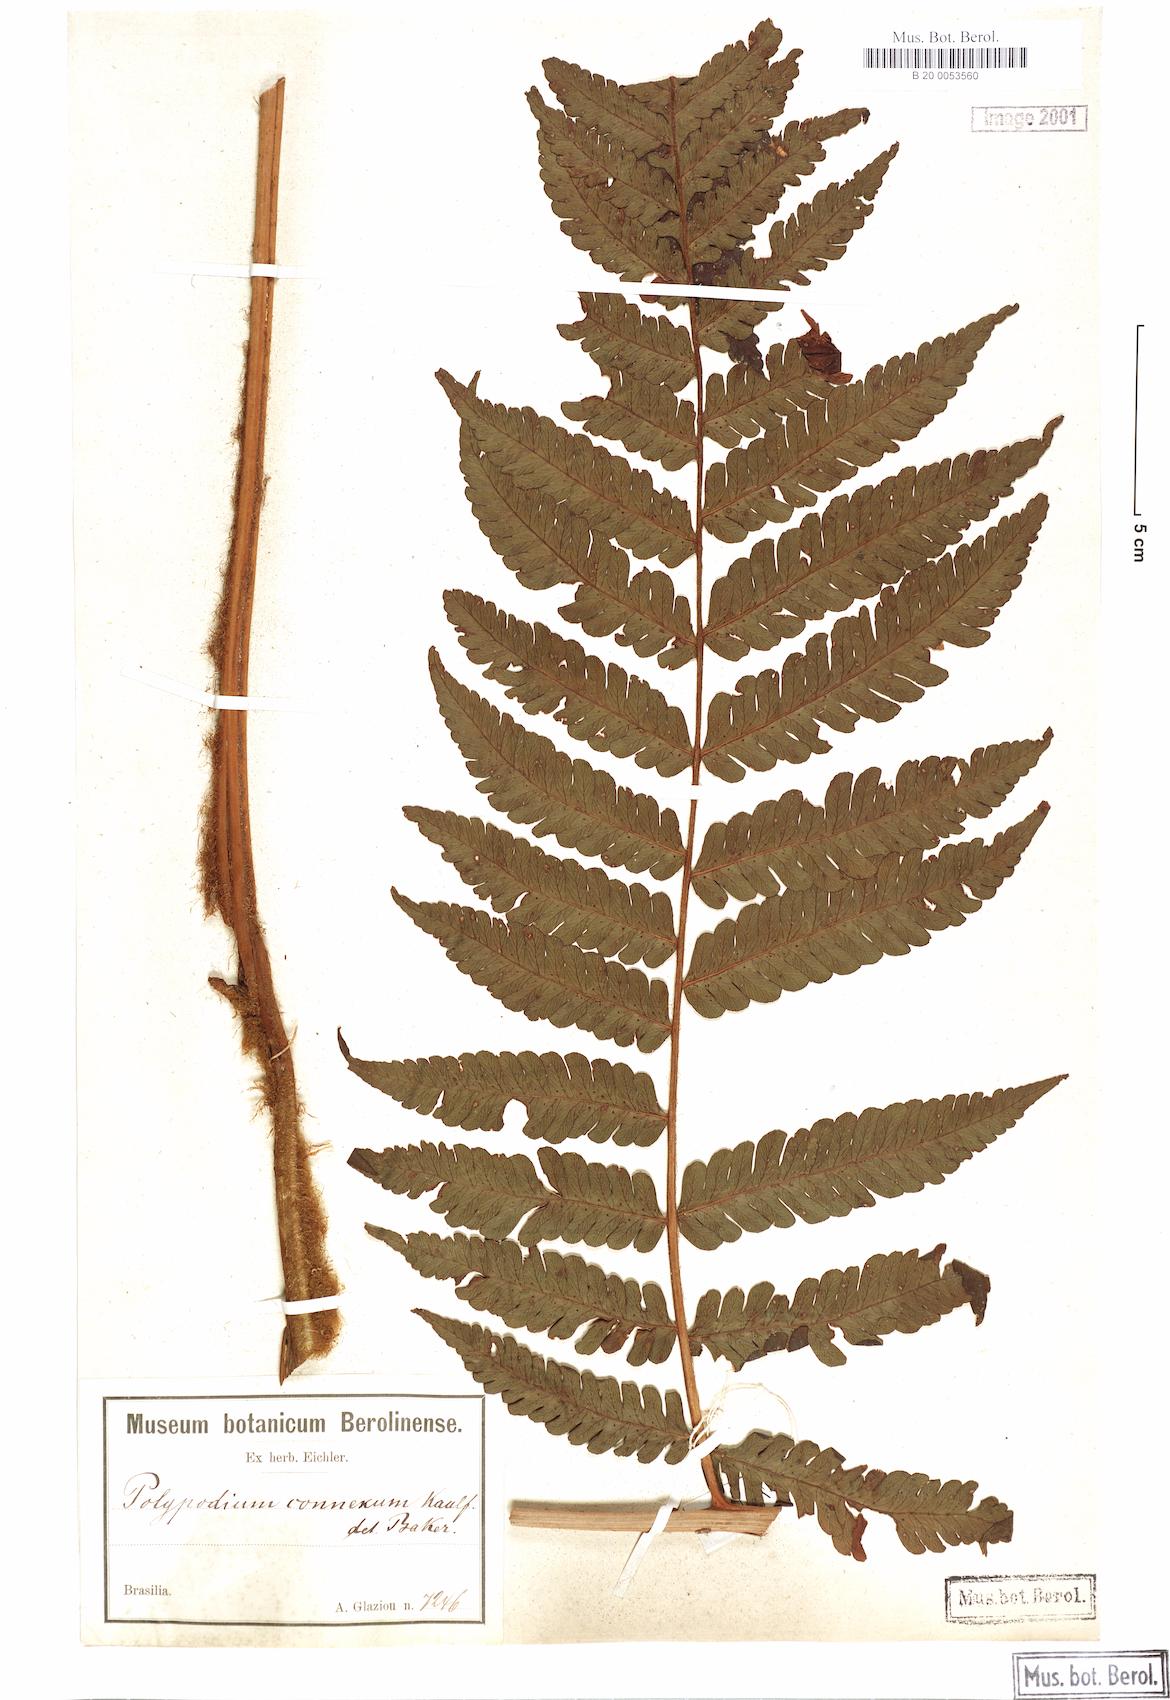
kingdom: Plantae
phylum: Tracheophyta
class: Polypodiopsida
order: Polypodiales
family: Dryopteridaceae
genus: Megalastrum
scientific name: Megalastrum connexum
